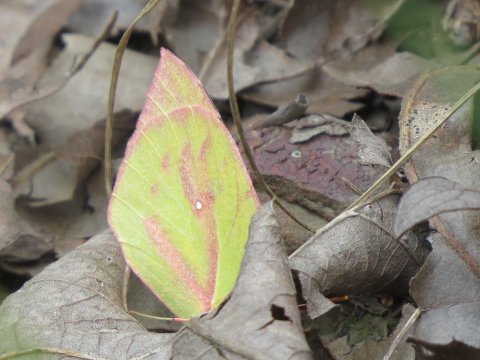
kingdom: Animalia
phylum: Arthropoda
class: Insecta
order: Lepidoptera
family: Pieridae
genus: Zerene
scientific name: Zerene cesonia
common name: Southern Dogface
